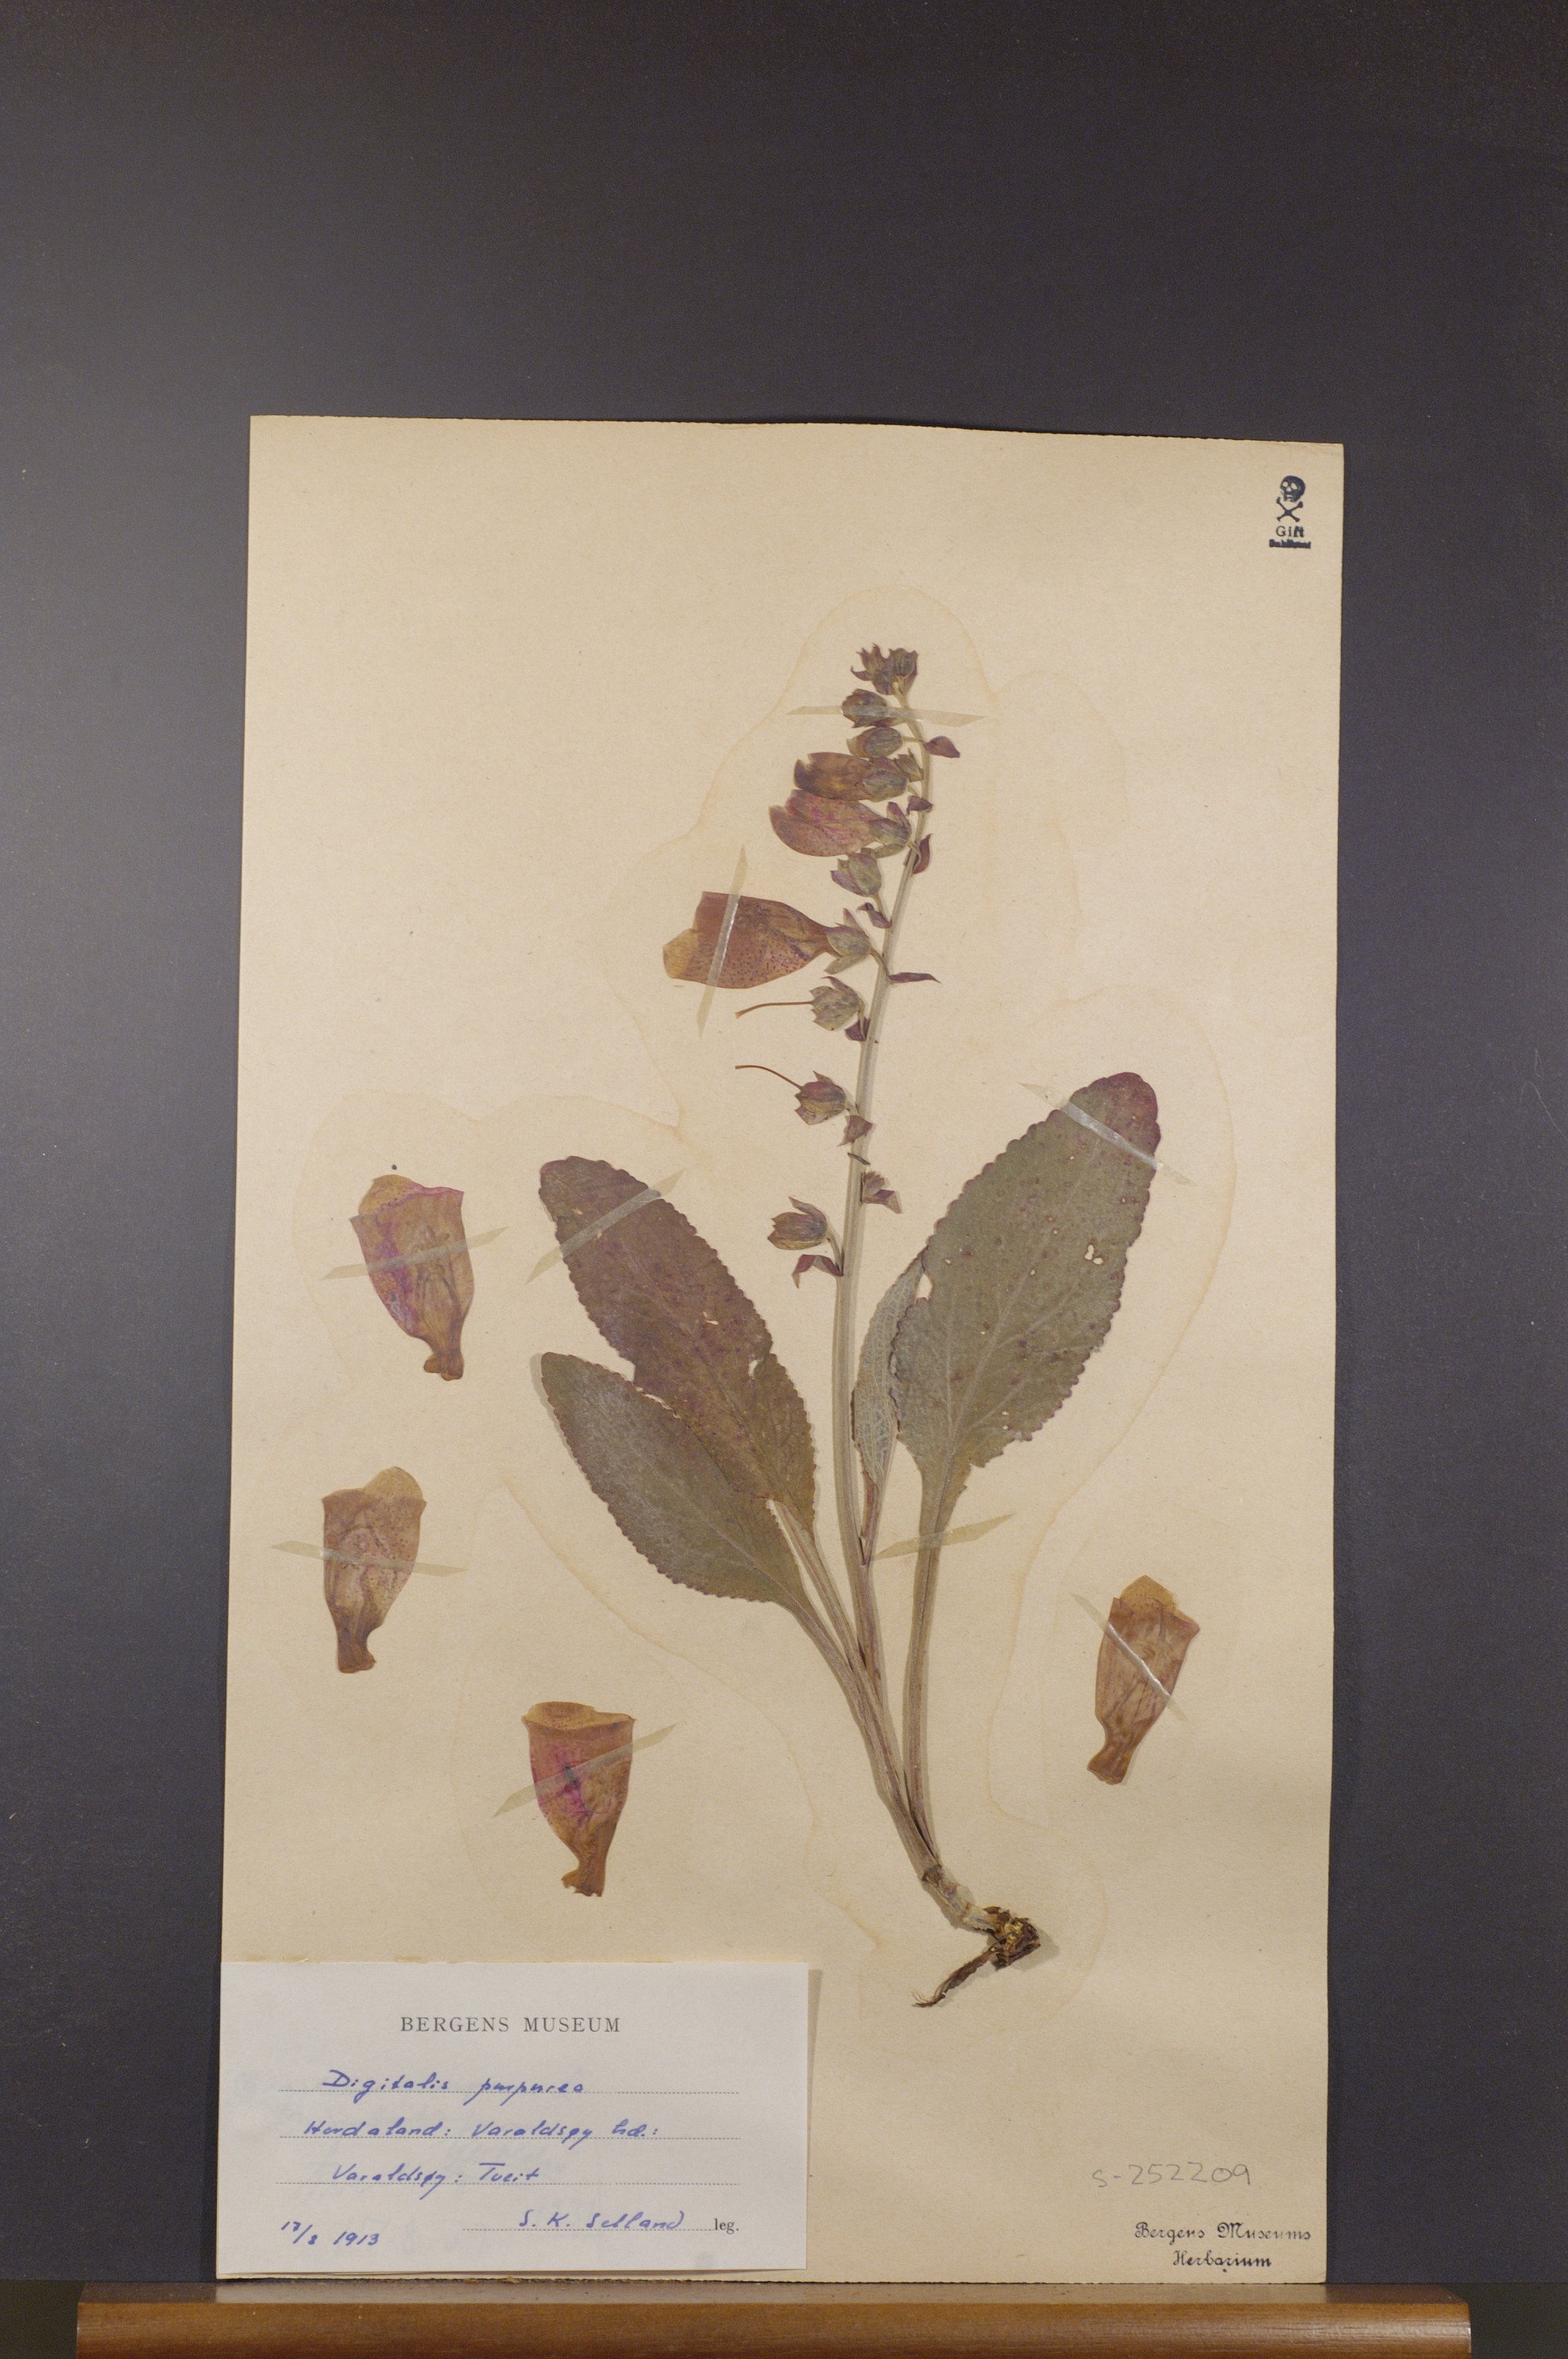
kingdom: Plantae
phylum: Tracheophyta
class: Magnoliopsida
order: Lamiales
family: Plantaginaceae
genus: Digitalis
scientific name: Digitalis purpurea
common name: Foxglove
